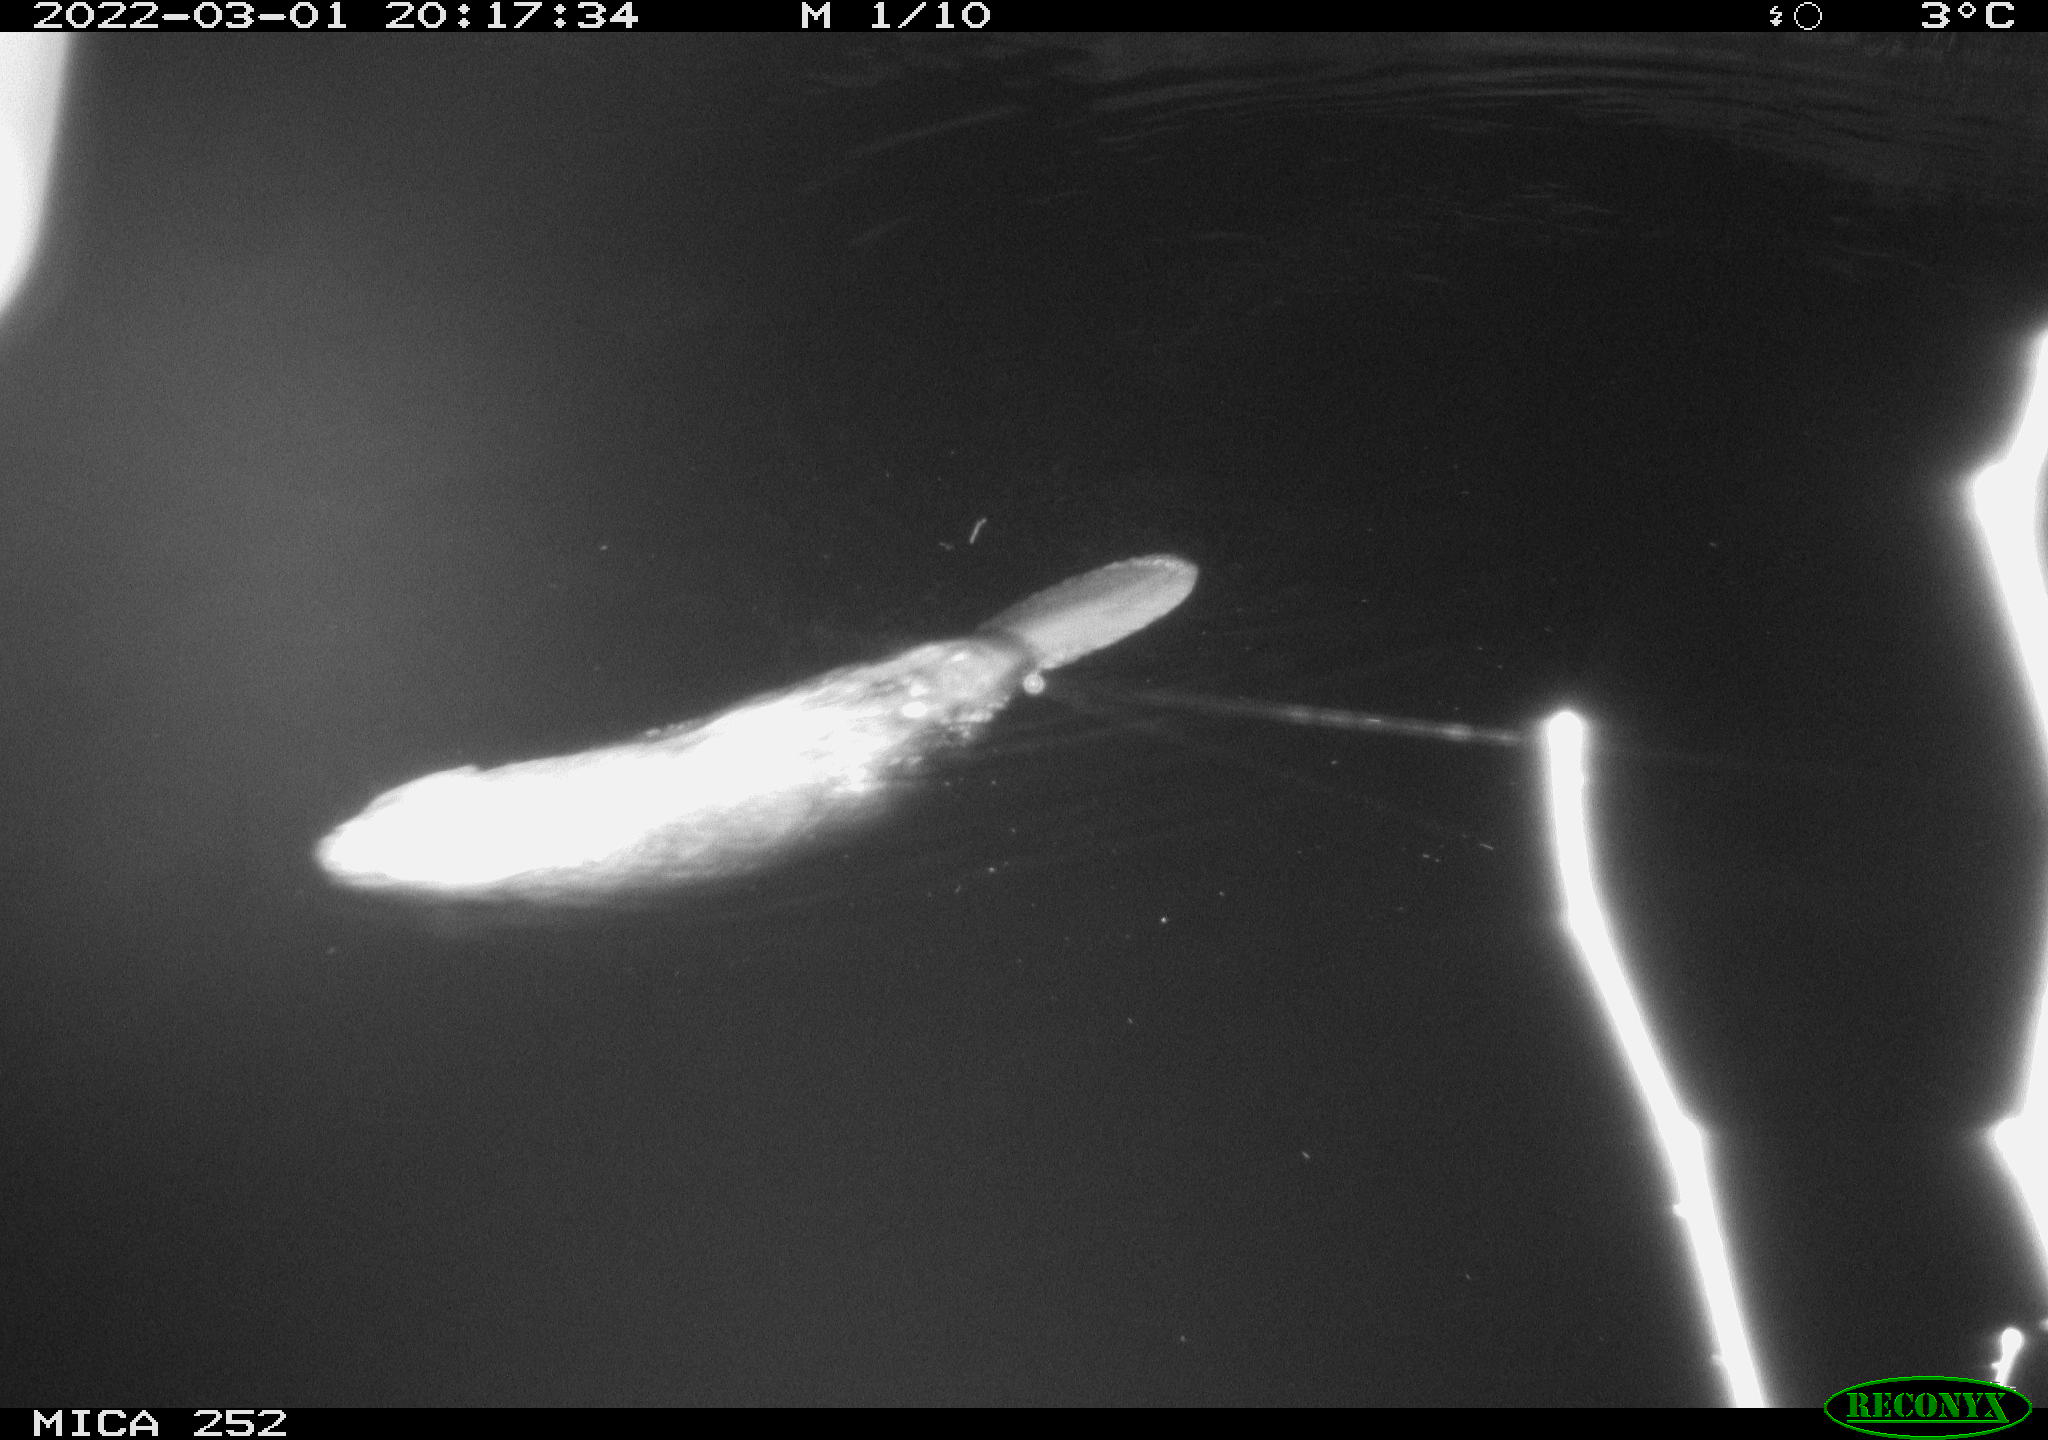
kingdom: Animalia
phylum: Chordata
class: Mammalia
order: Rodentia
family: Castoridae
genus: Castor
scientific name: Castor fiber
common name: Eurasian beaver
